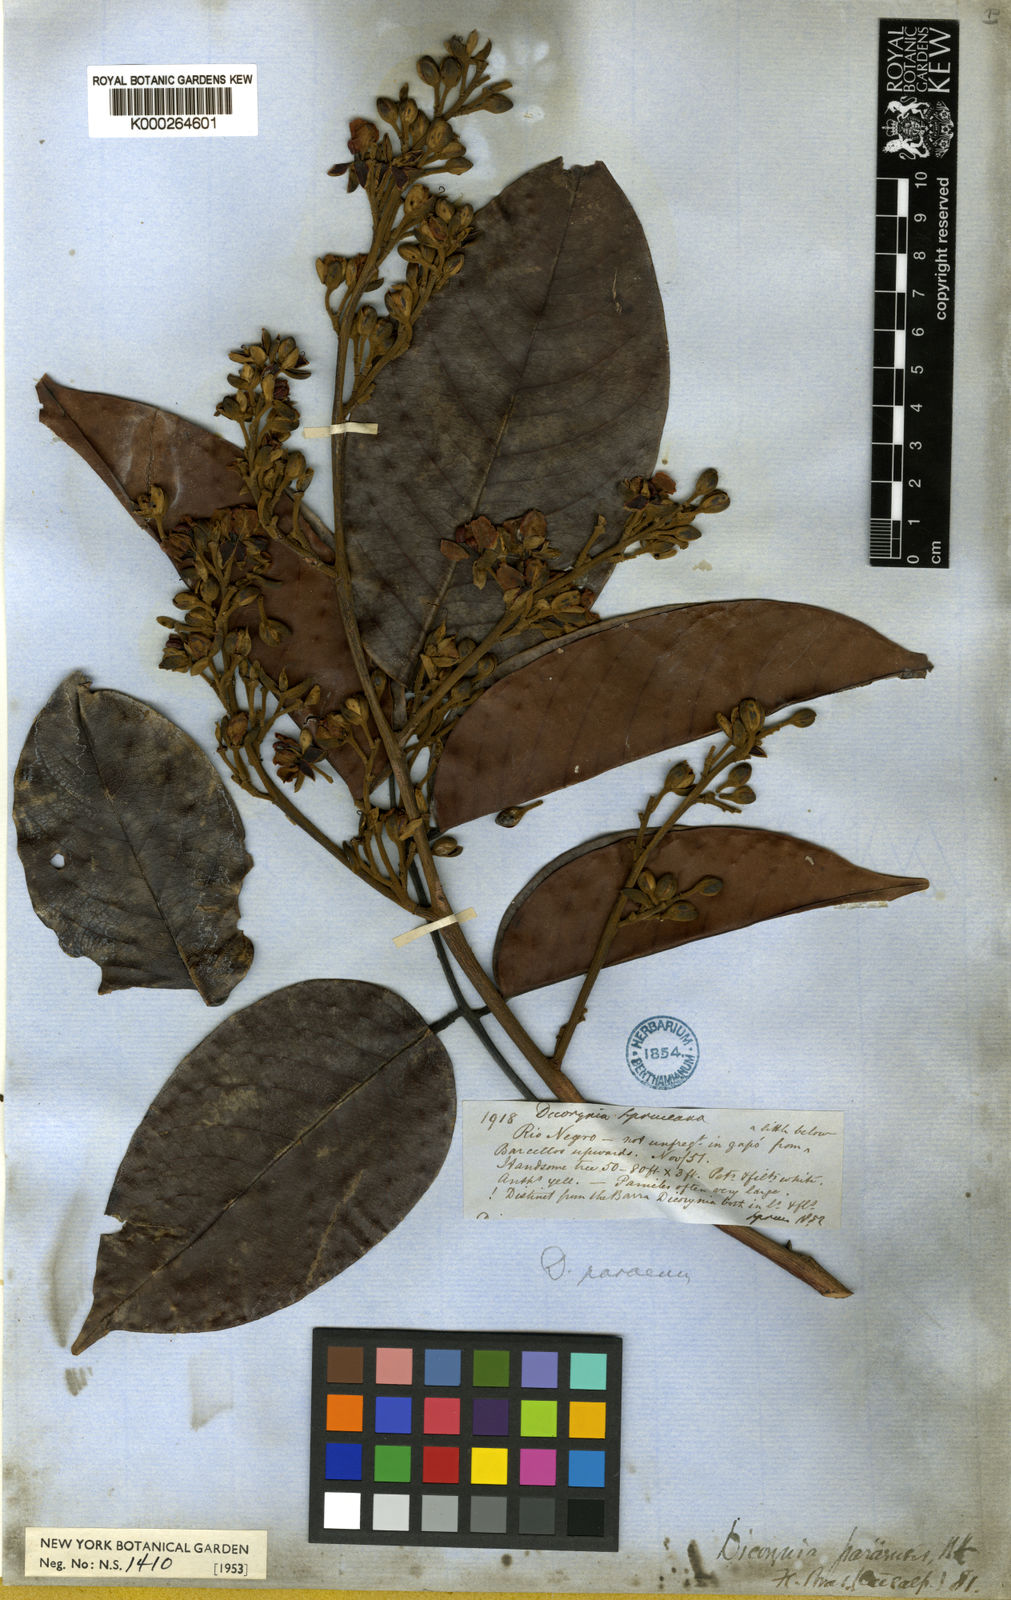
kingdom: Plantae
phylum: Tracheophyta
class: Magnoliopsida
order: Fabales
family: Fabaceae
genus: Dicorynia
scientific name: Dicorynia paraensis
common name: Angelique
